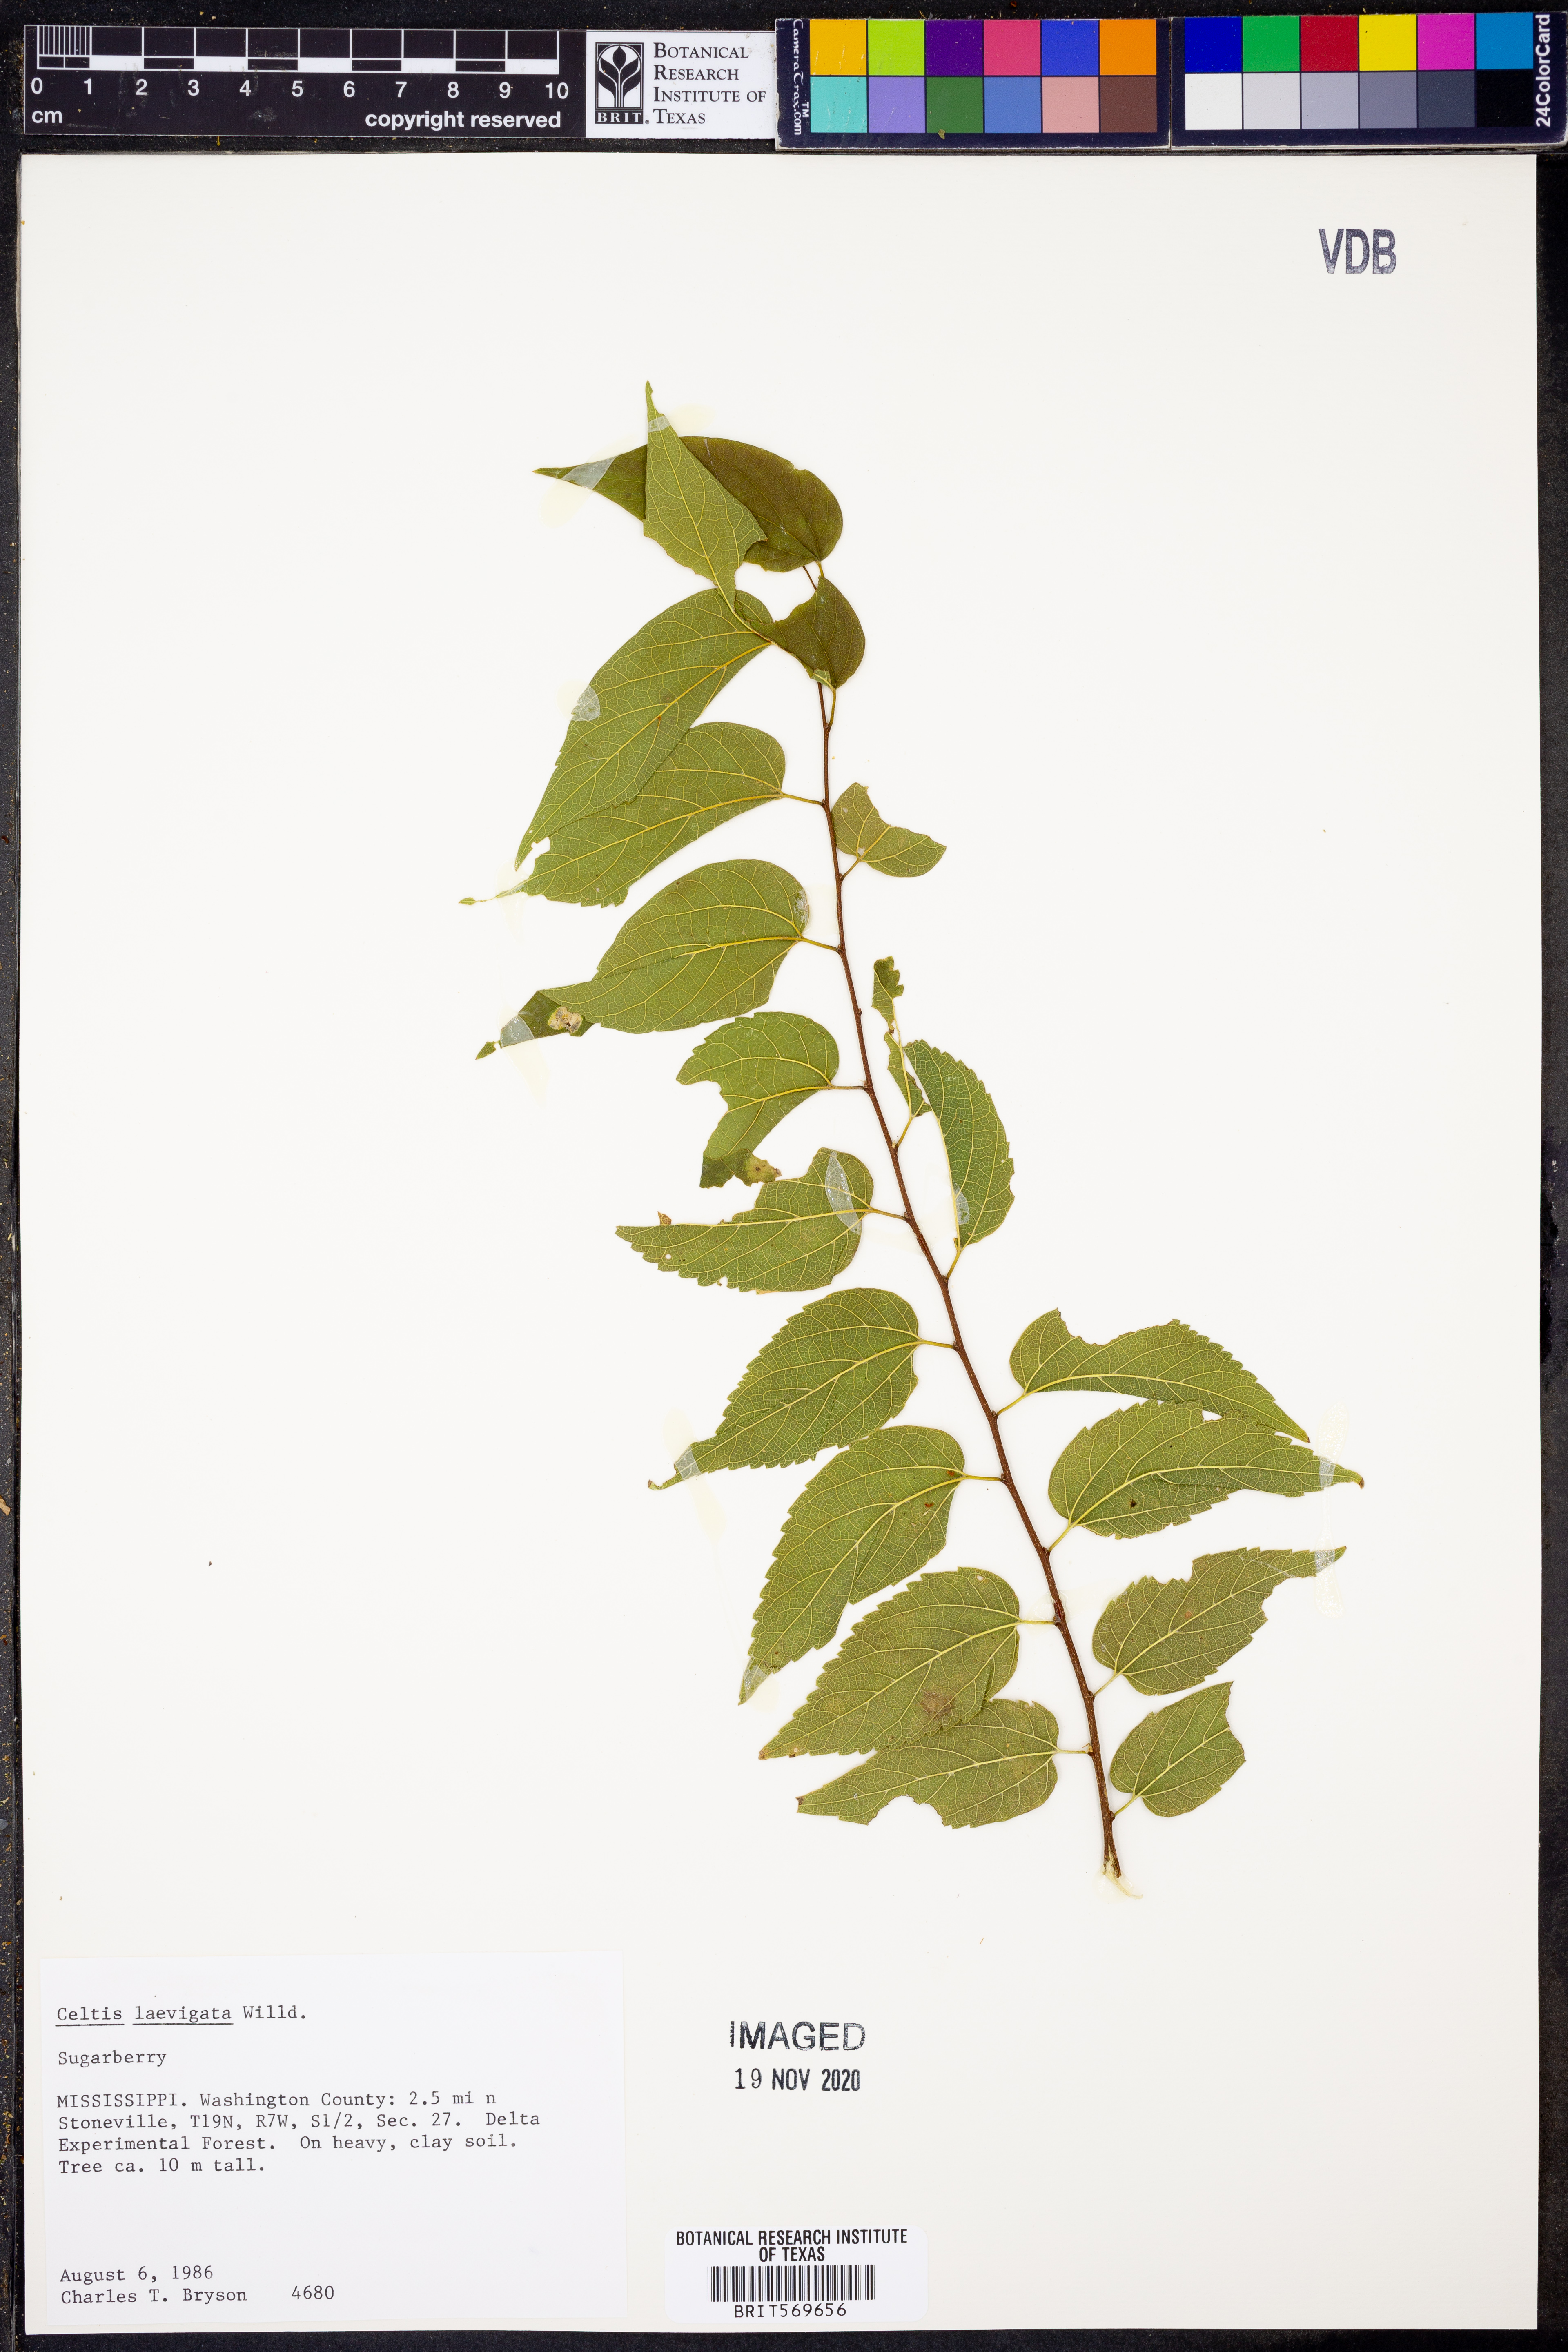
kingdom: Plantae
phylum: Tracheophyta
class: Magnoliopsida
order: Rosales
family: Cannabaceae
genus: Celtis
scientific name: Celtis laevigata
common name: Sugarberry
